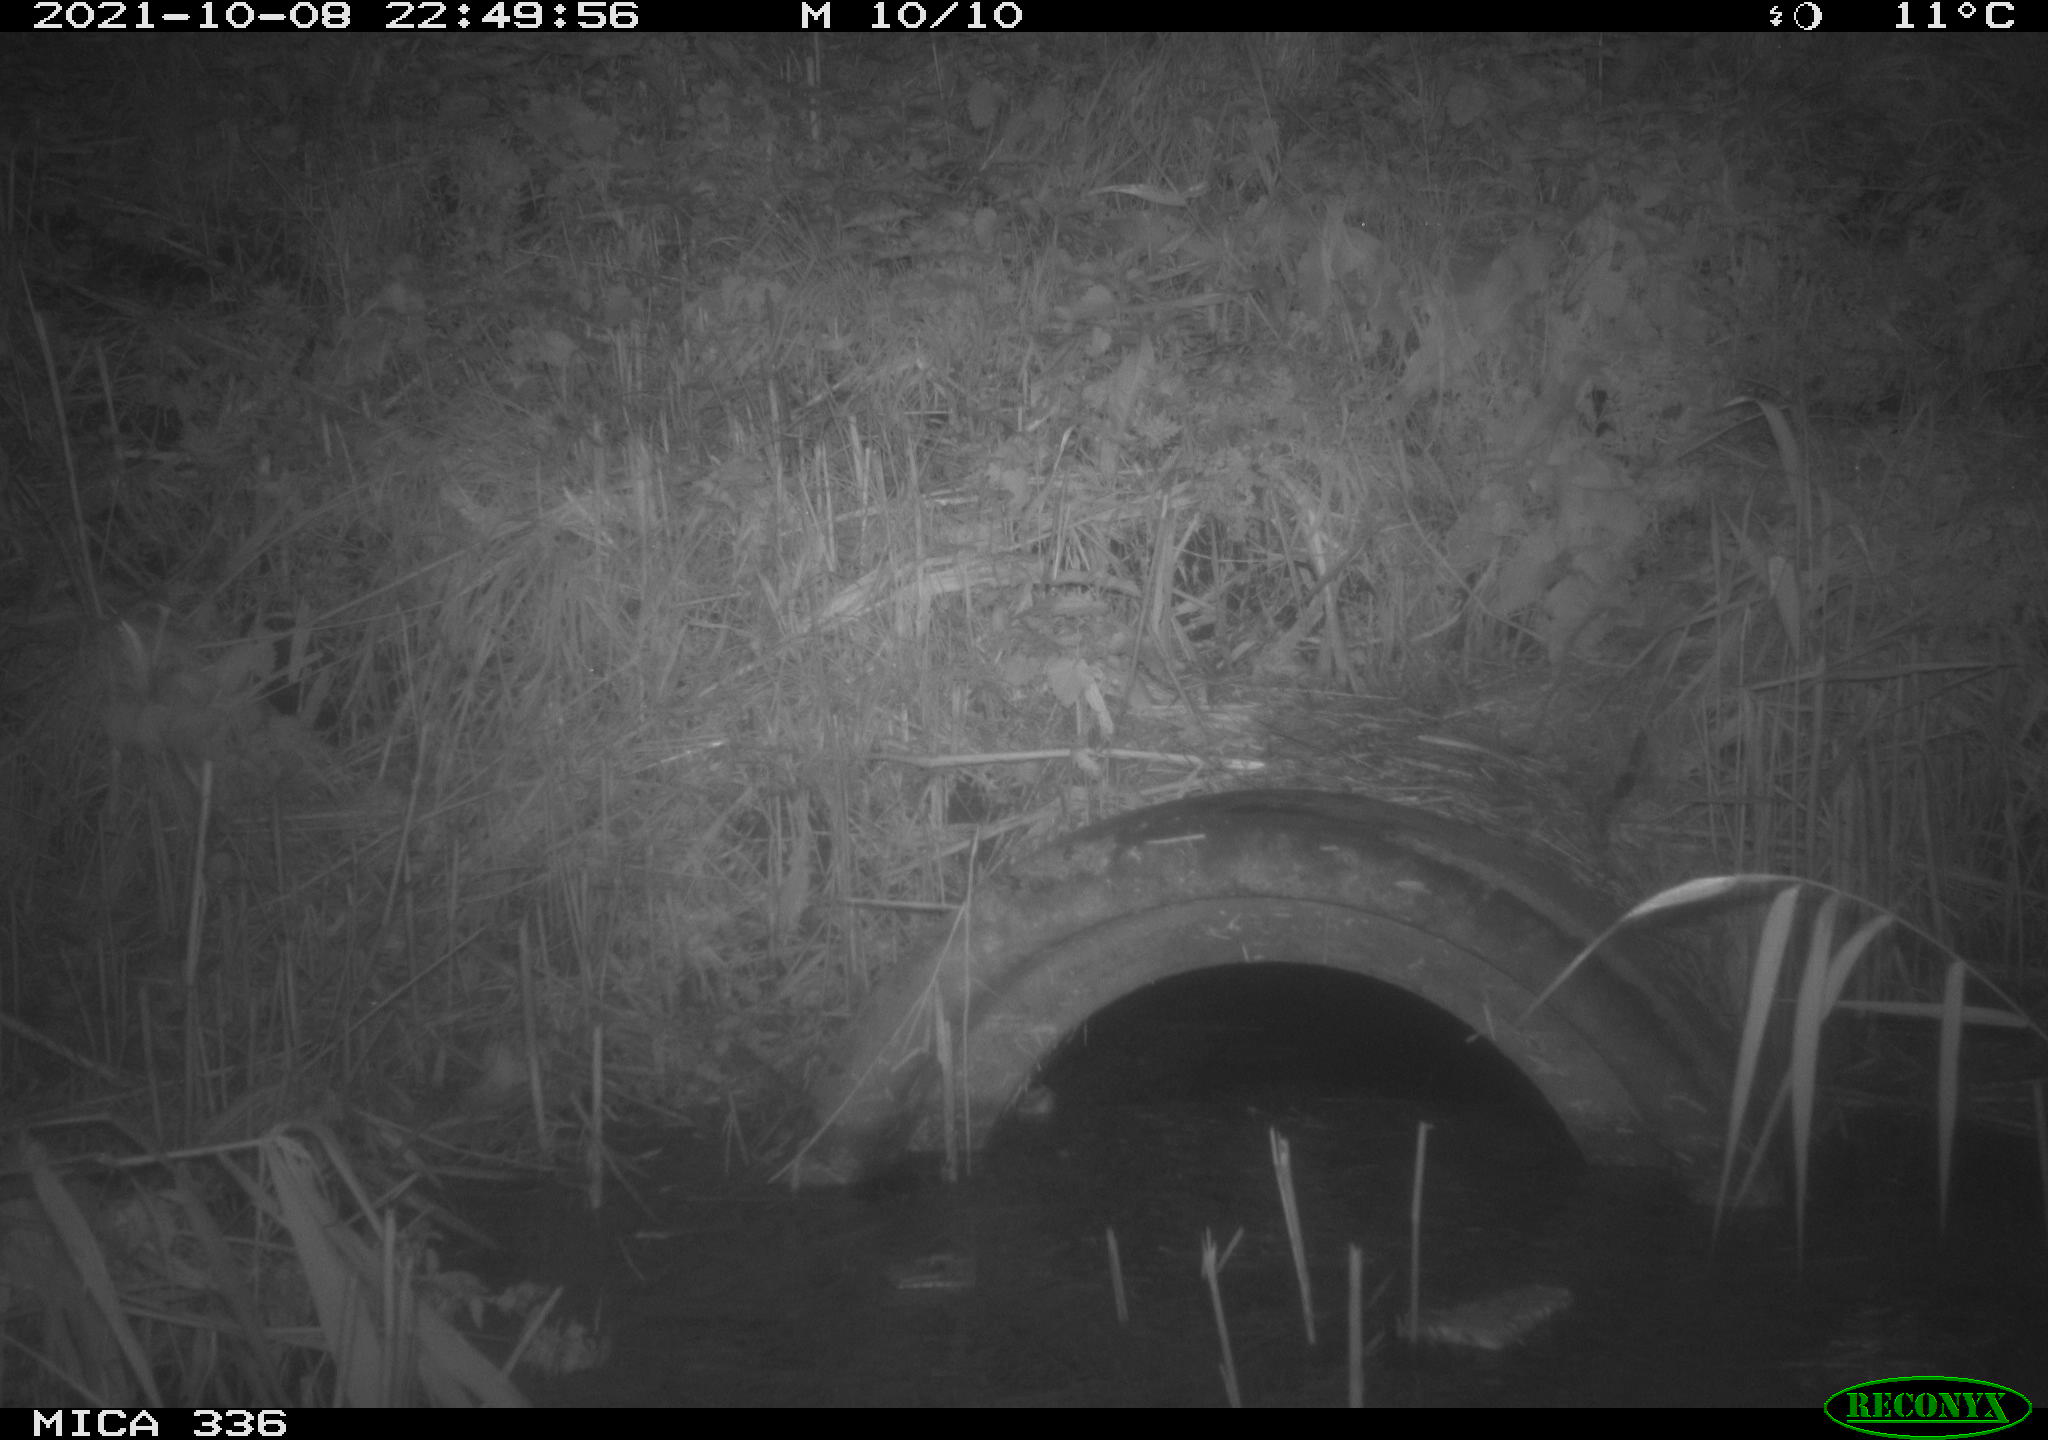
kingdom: Animalia
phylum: Chordata
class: Mammalia
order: Rodentia
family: Muridae
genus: Rattus
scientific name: Rattus norvegicus
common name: Brown rat
